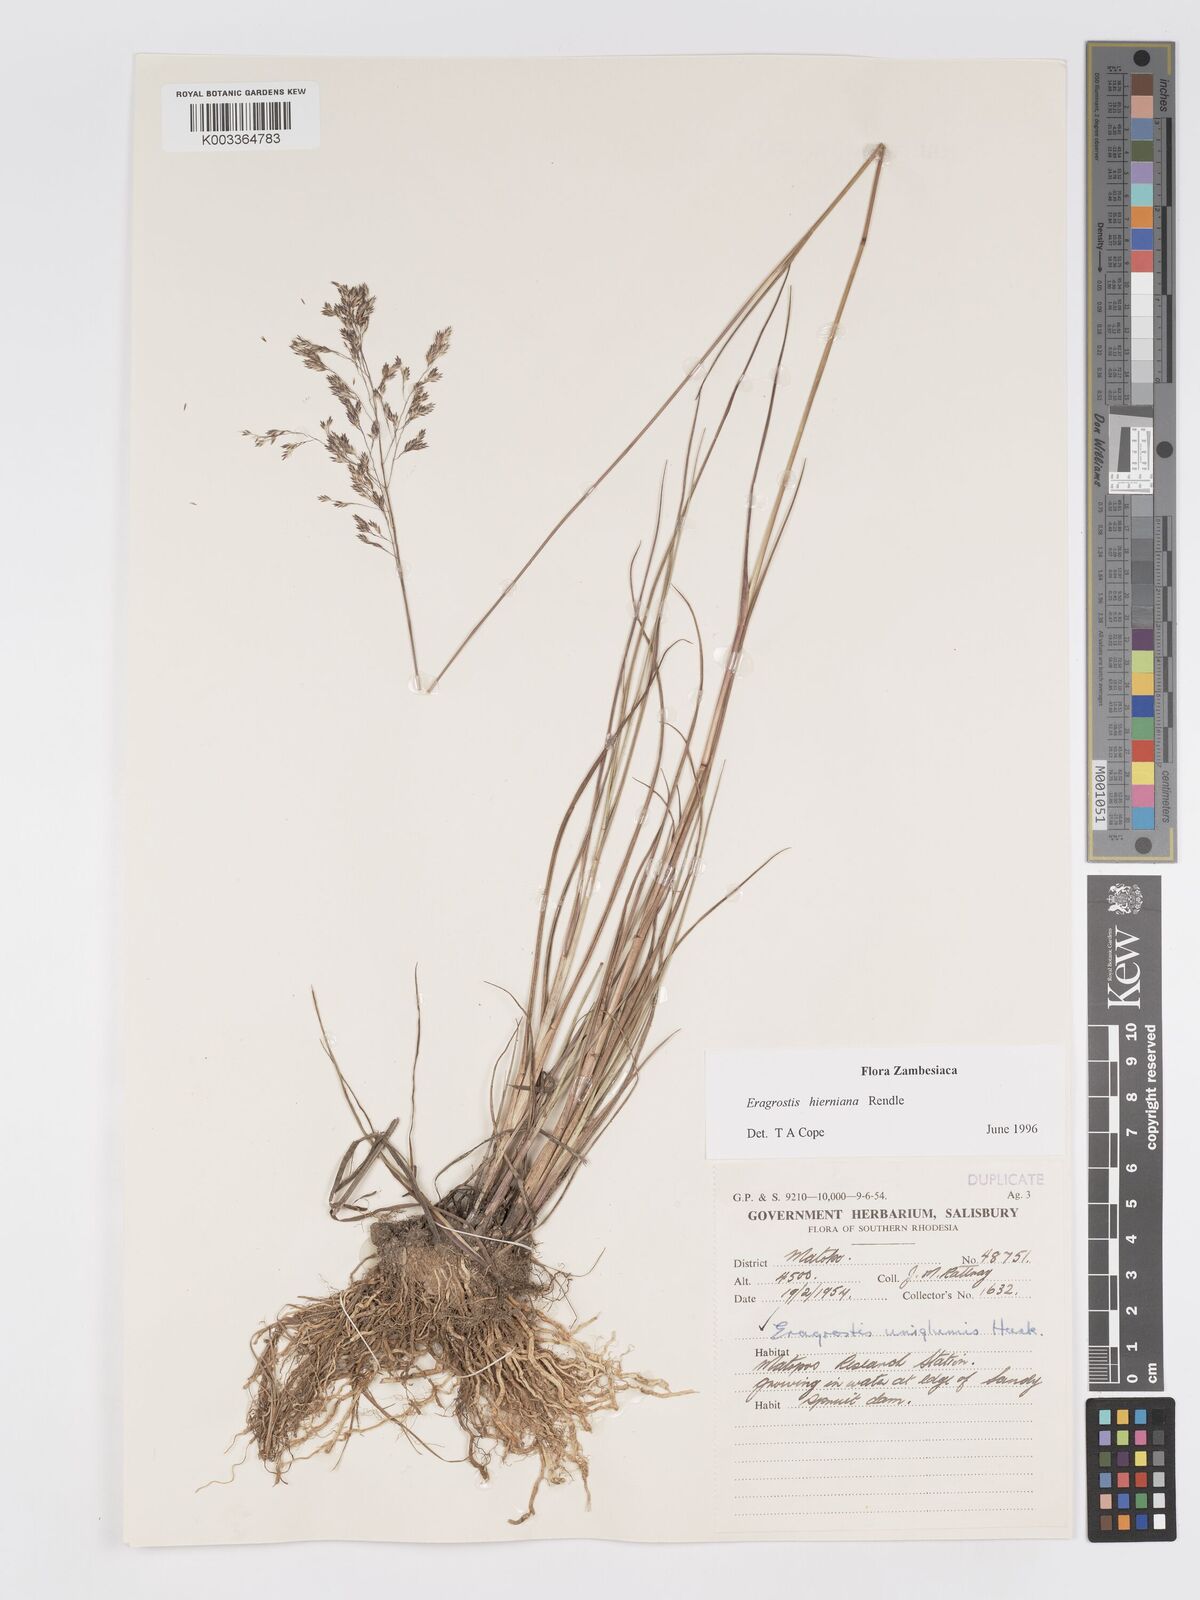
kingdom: Plantae
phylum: Tracheophyta
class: Liliopsida
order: Poales
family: Poaceae
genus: Eragrostis
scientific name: Eragrostis hierniana
